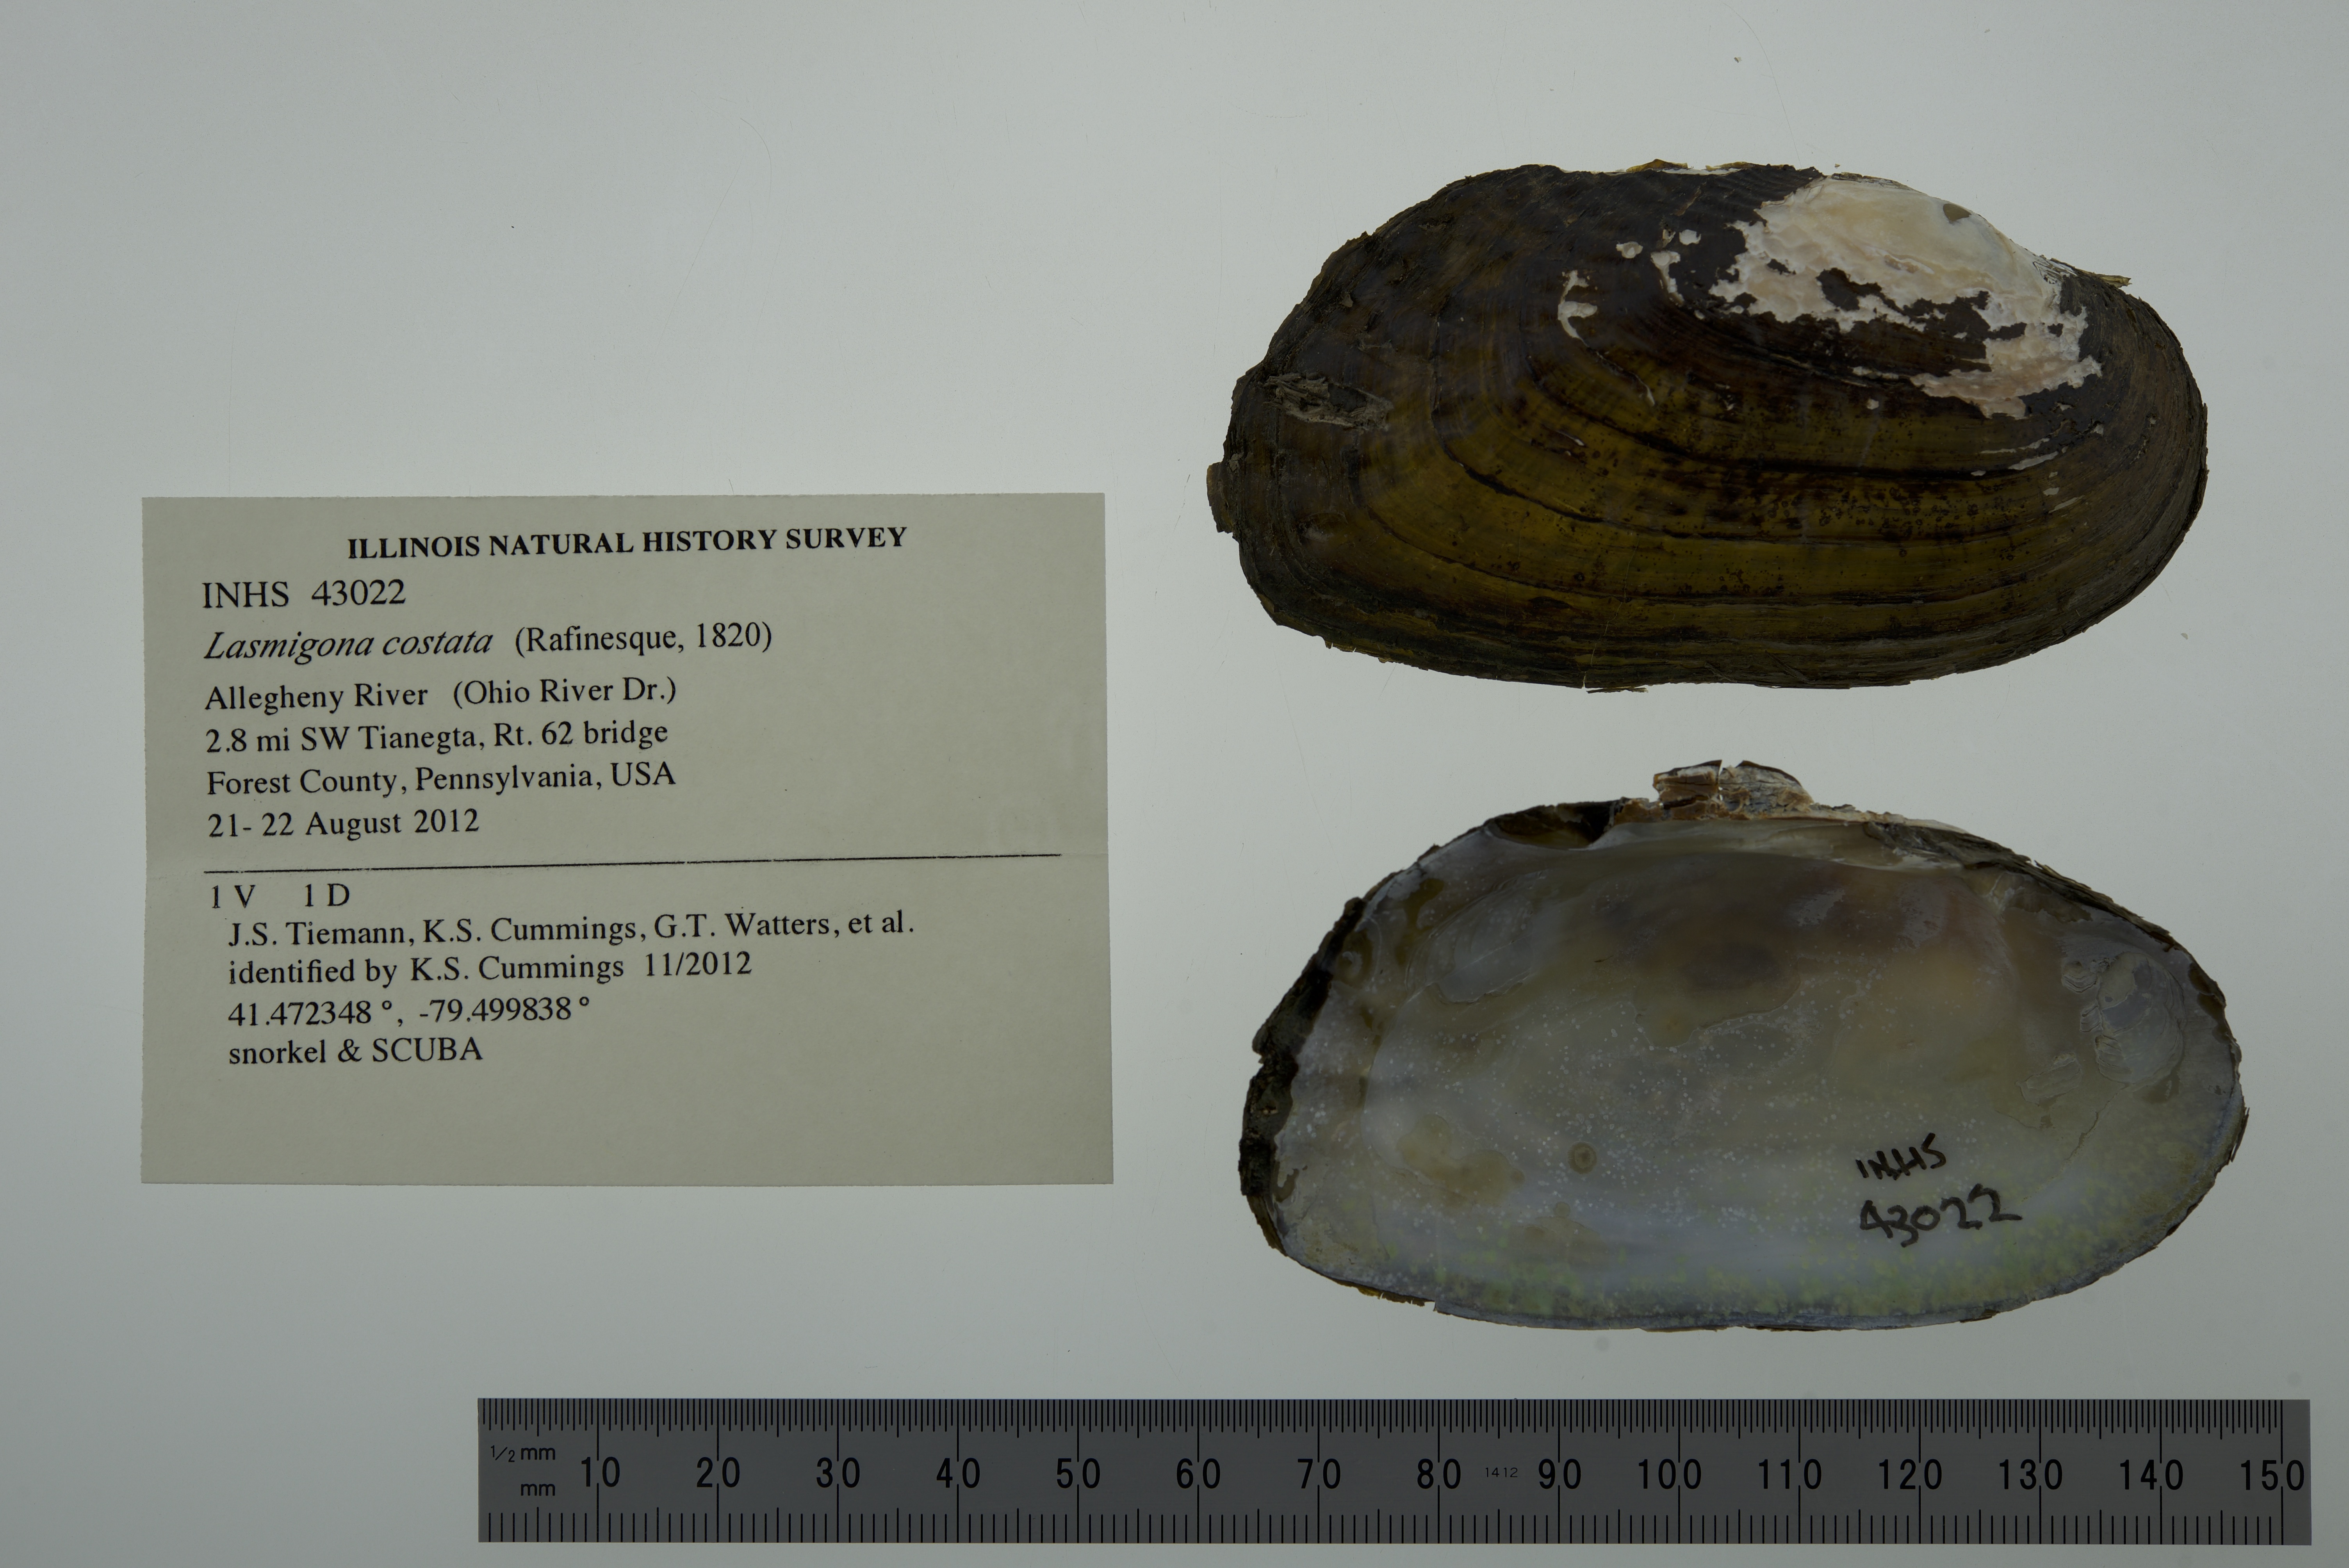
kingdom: Animalia
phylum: Mollusca
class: Bivalvia
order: Unionida
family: Unionidae
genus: Lasmigona
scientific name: Lasmigona costata
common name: Flutedshell
